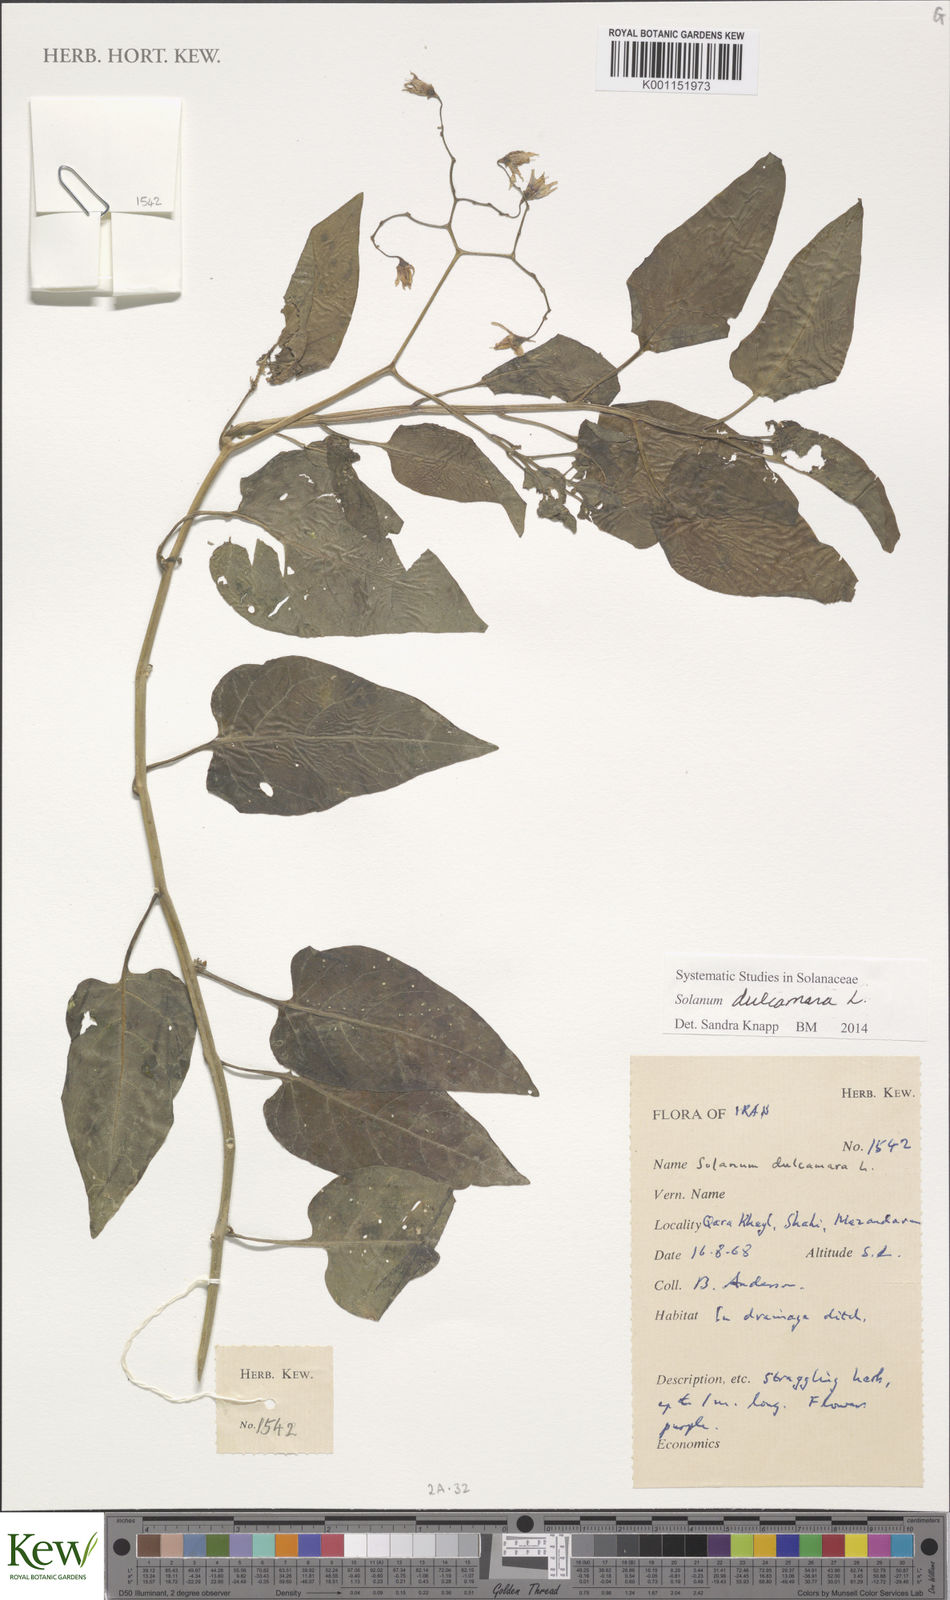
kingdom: Plantae
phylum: Tracheophyta
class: Magnoliopsida
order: Solanales
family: Solanaceae
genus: Solanum
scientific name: Solanum dulcamara
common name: Climbing nightshade
